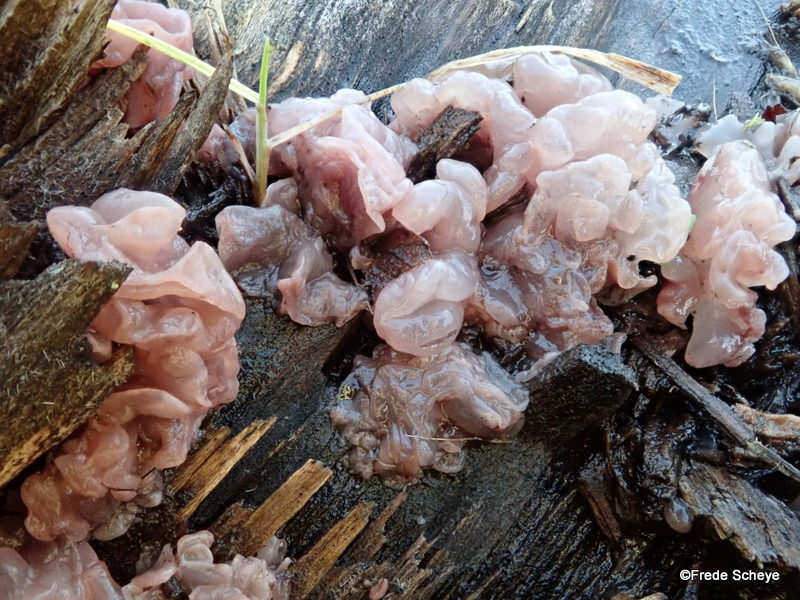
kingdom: Fungi
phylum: Ascomycota
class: Leotiomycetes
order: Helotiales
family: Gelatinodiscaceae
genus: Ascocoryne
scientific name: Ascocoryne sarcoides
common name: rødlilla sejskive
